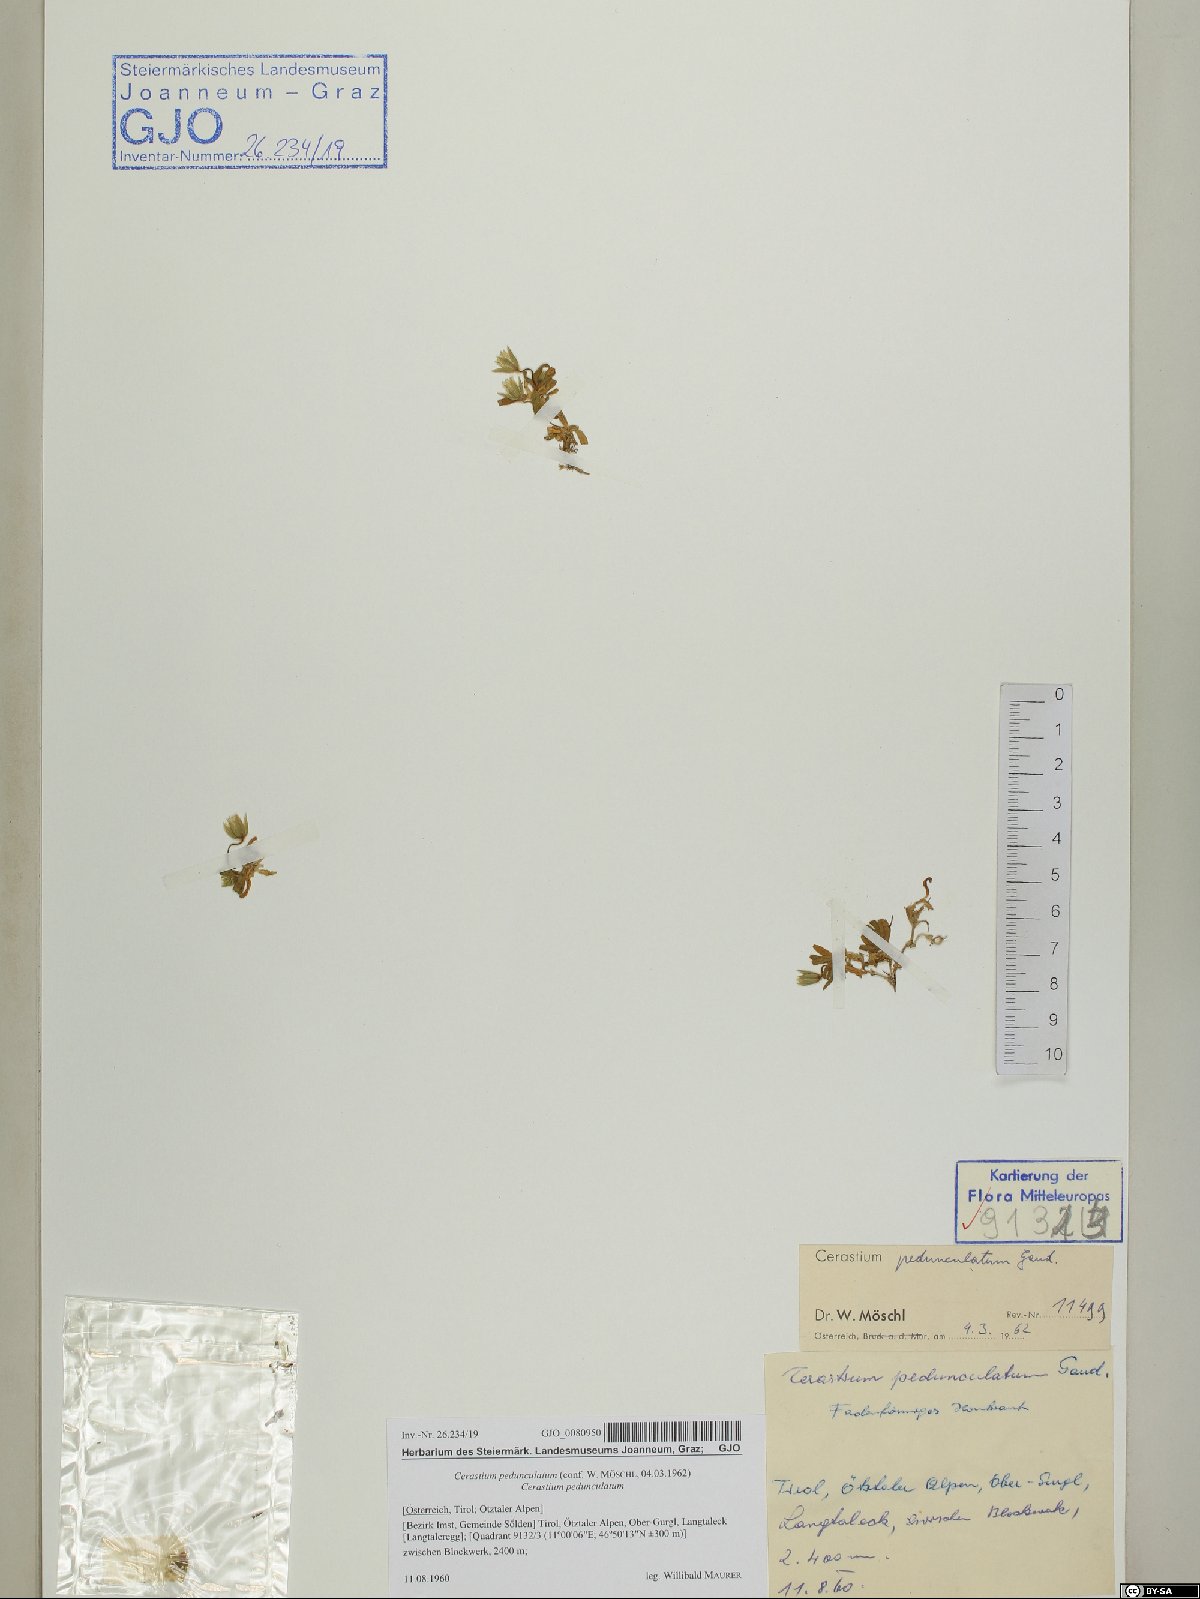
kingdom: Plantae
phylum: Tracheophyta
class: Magnoliopsida
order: Caryophyllales
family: Caryophyllaceae
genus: Cerastium
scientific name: Cerastium pedunculatum
